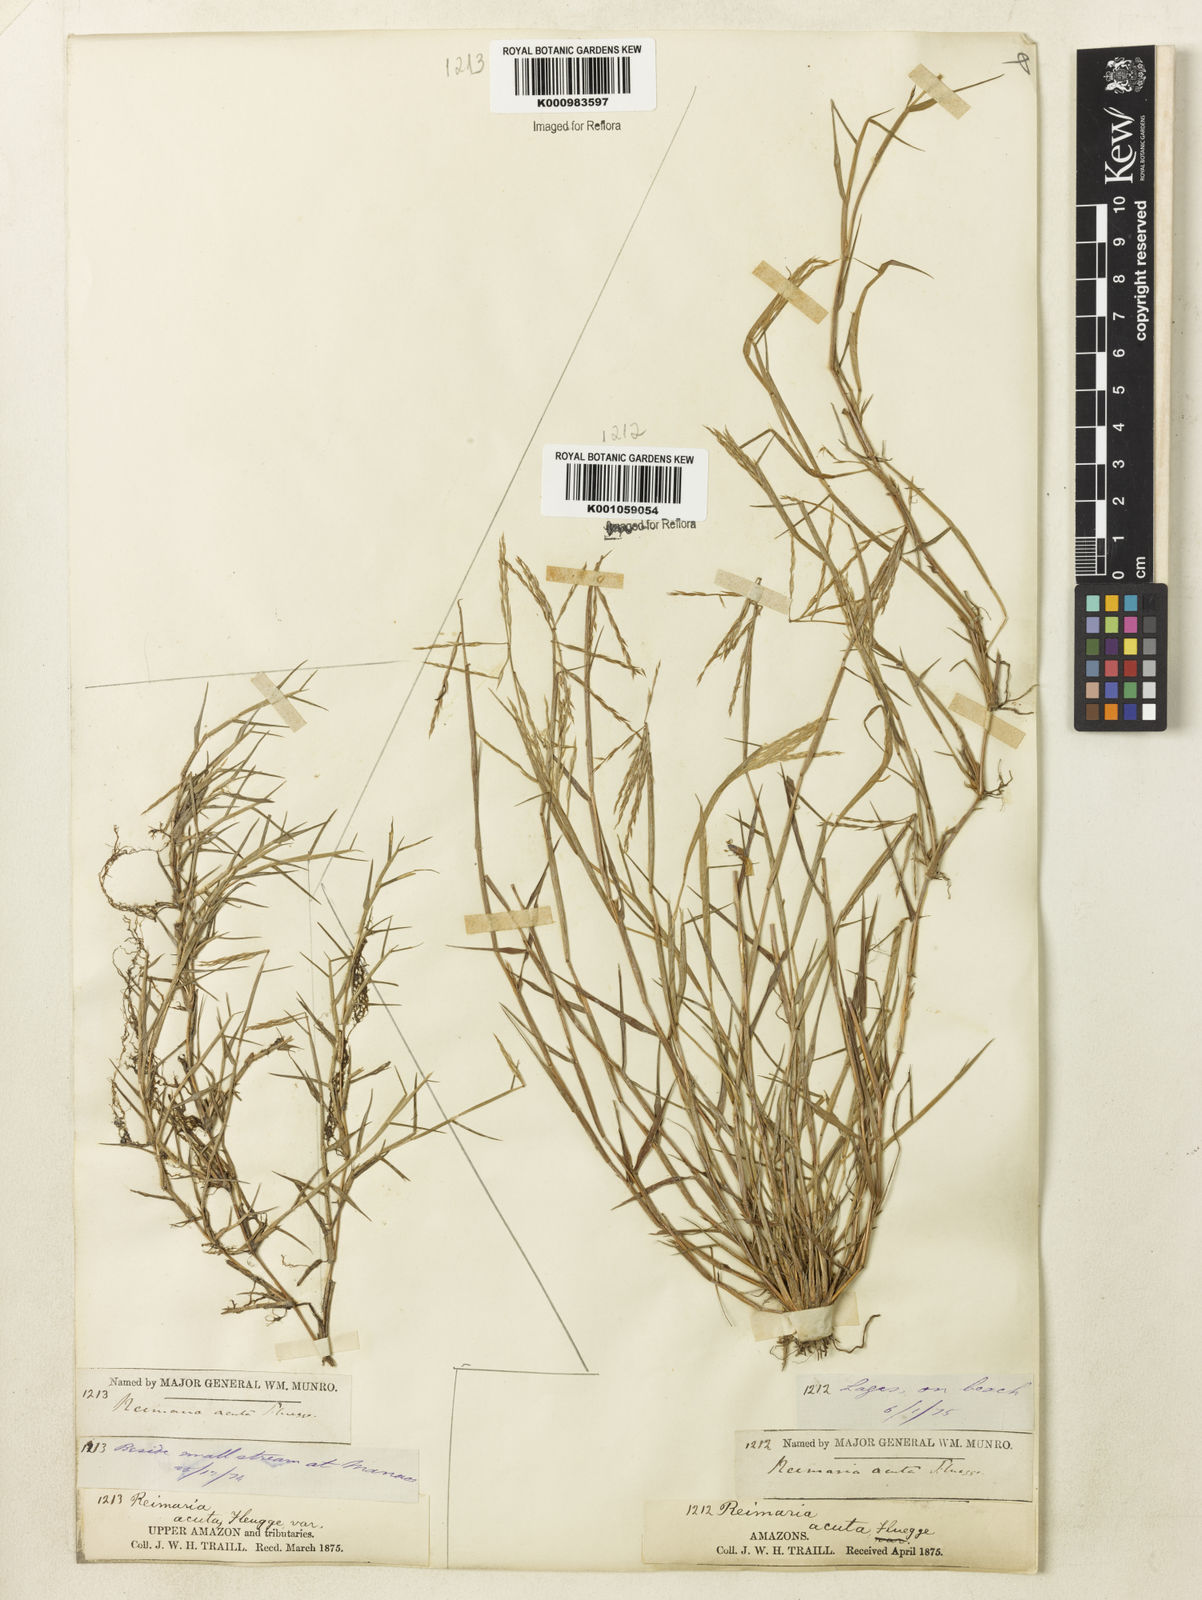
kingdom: Plantae
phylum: Tracheophyta
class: Liliopsida
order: Poales
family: Poaceae
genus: Paspalum
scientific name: Paspalum
